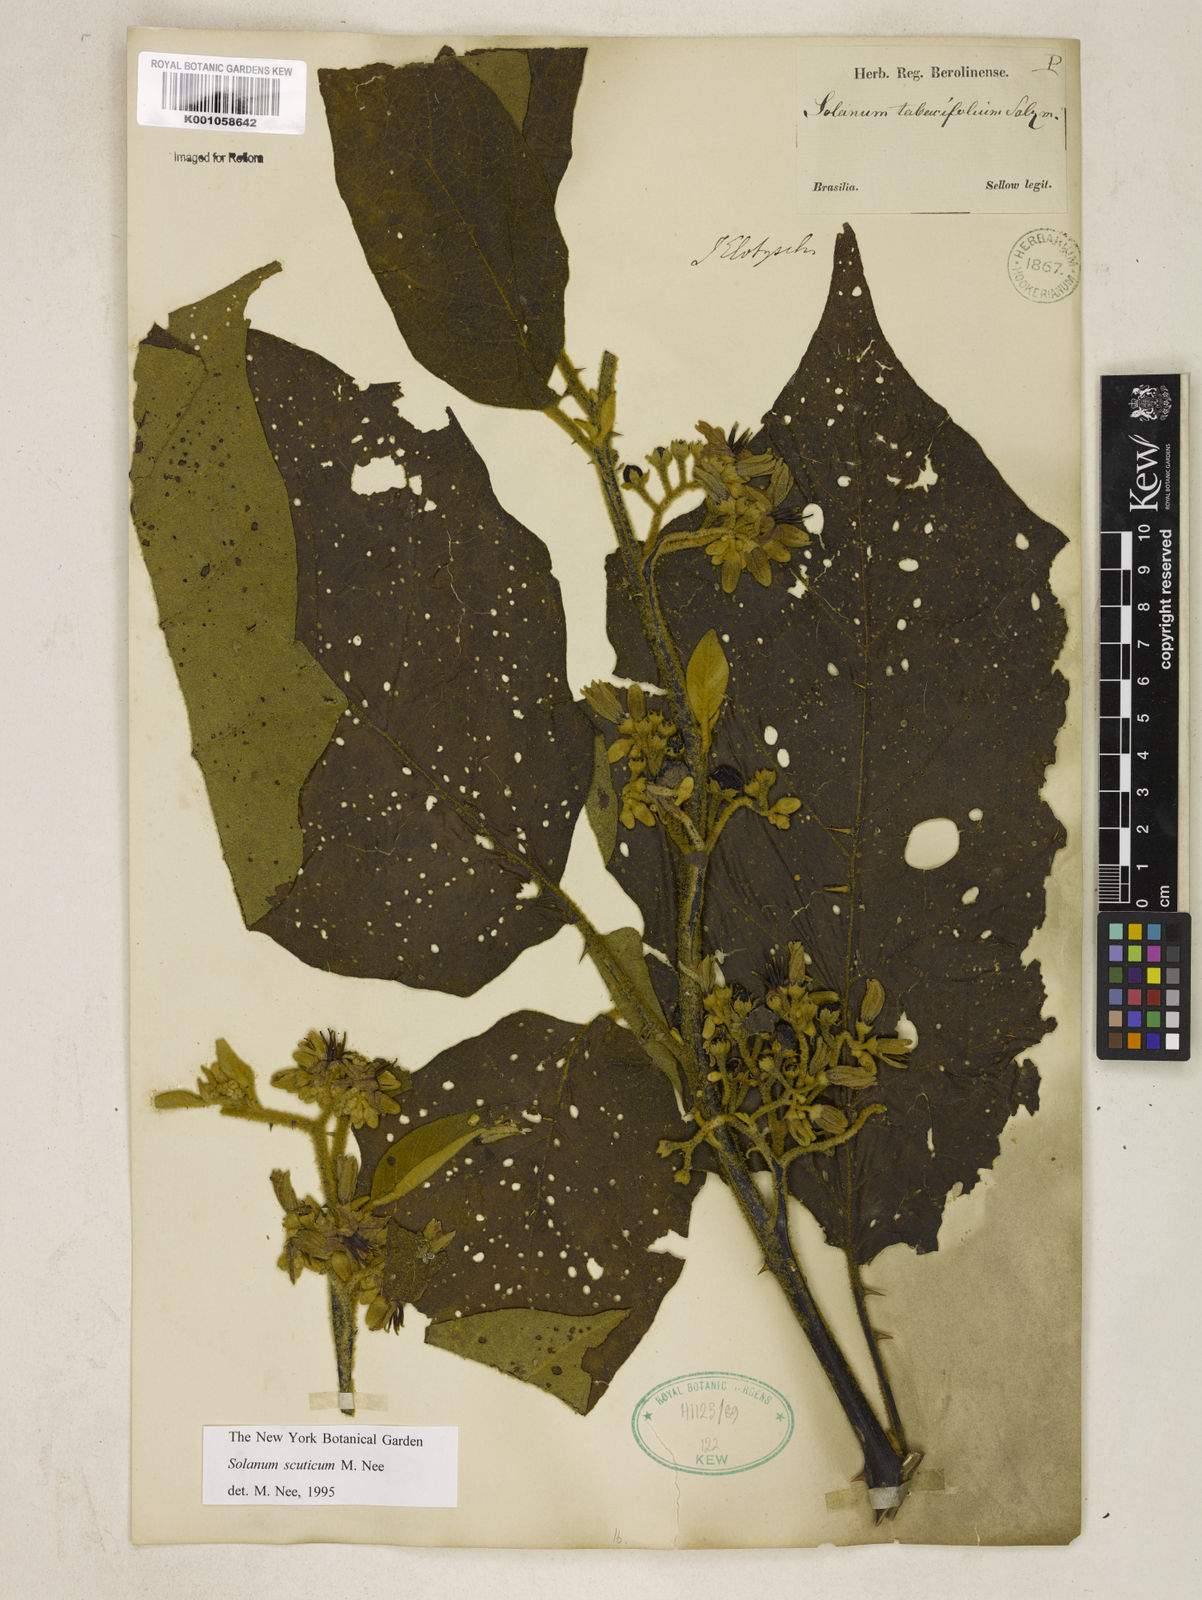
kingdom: Plantae
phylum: Tracheophyta
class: Magnoliopsida
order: Solanales
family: Solanaceae
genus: Solanum
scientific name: Solanum scuticum
